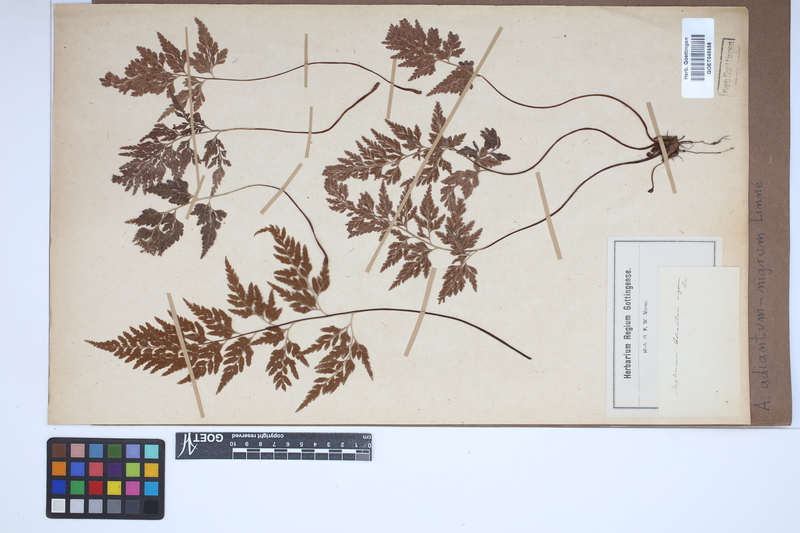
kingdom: Plantae
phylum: Tracheophyta
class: Polypodiopsida
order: Polypodiales
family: Aspleniaceae
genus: Asplenium
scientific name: Asplenium adiantum-nigrum
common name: Black spleenwort
